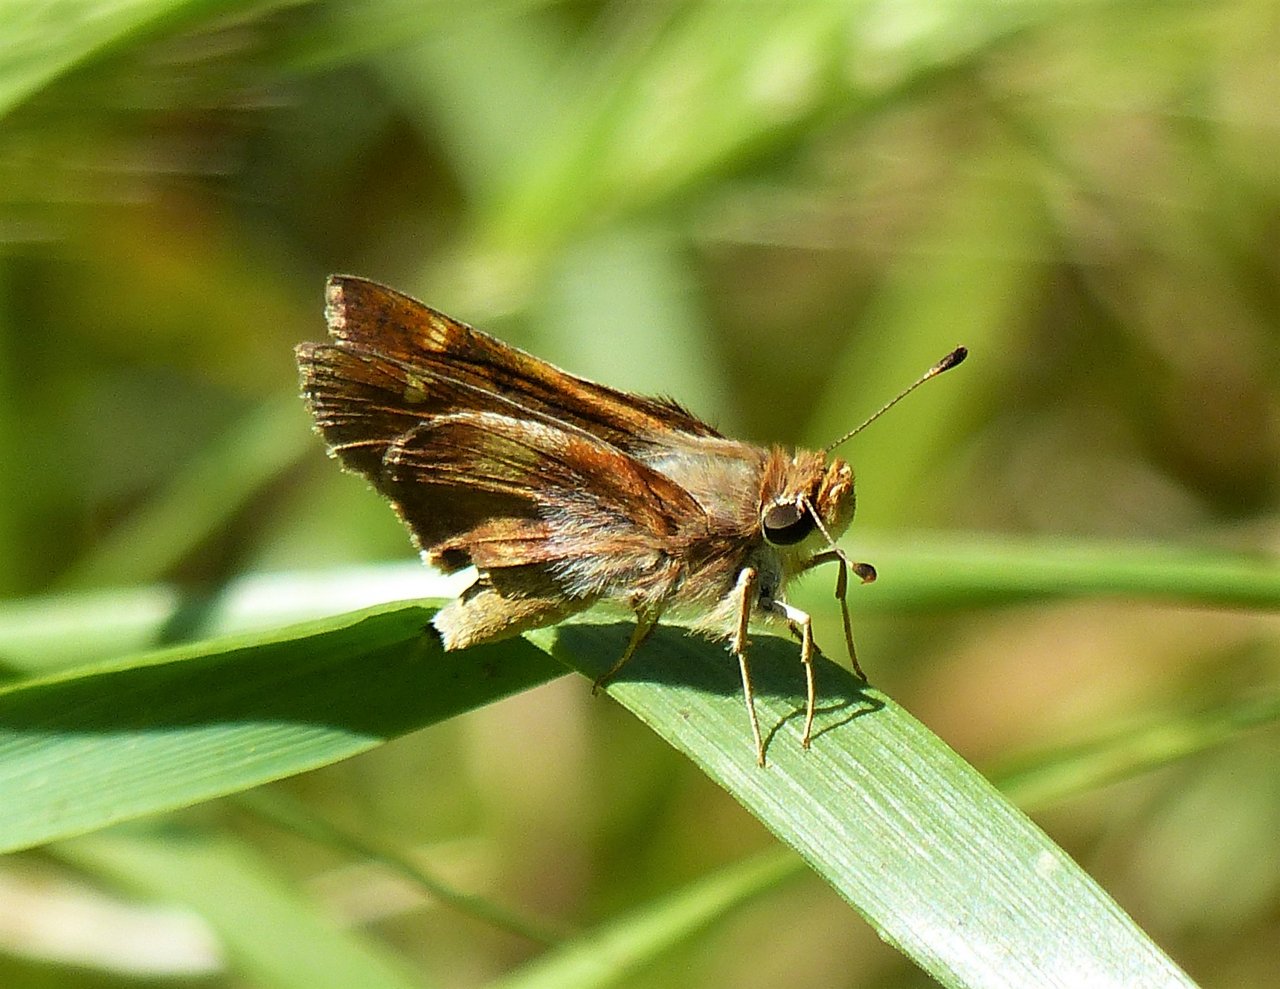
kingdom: Animalia
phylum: Arthropoda
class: Insecta
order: Lepidoptera
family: Hesperiidae
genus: Lon
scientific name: Lon melane
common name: Umber Skipper
